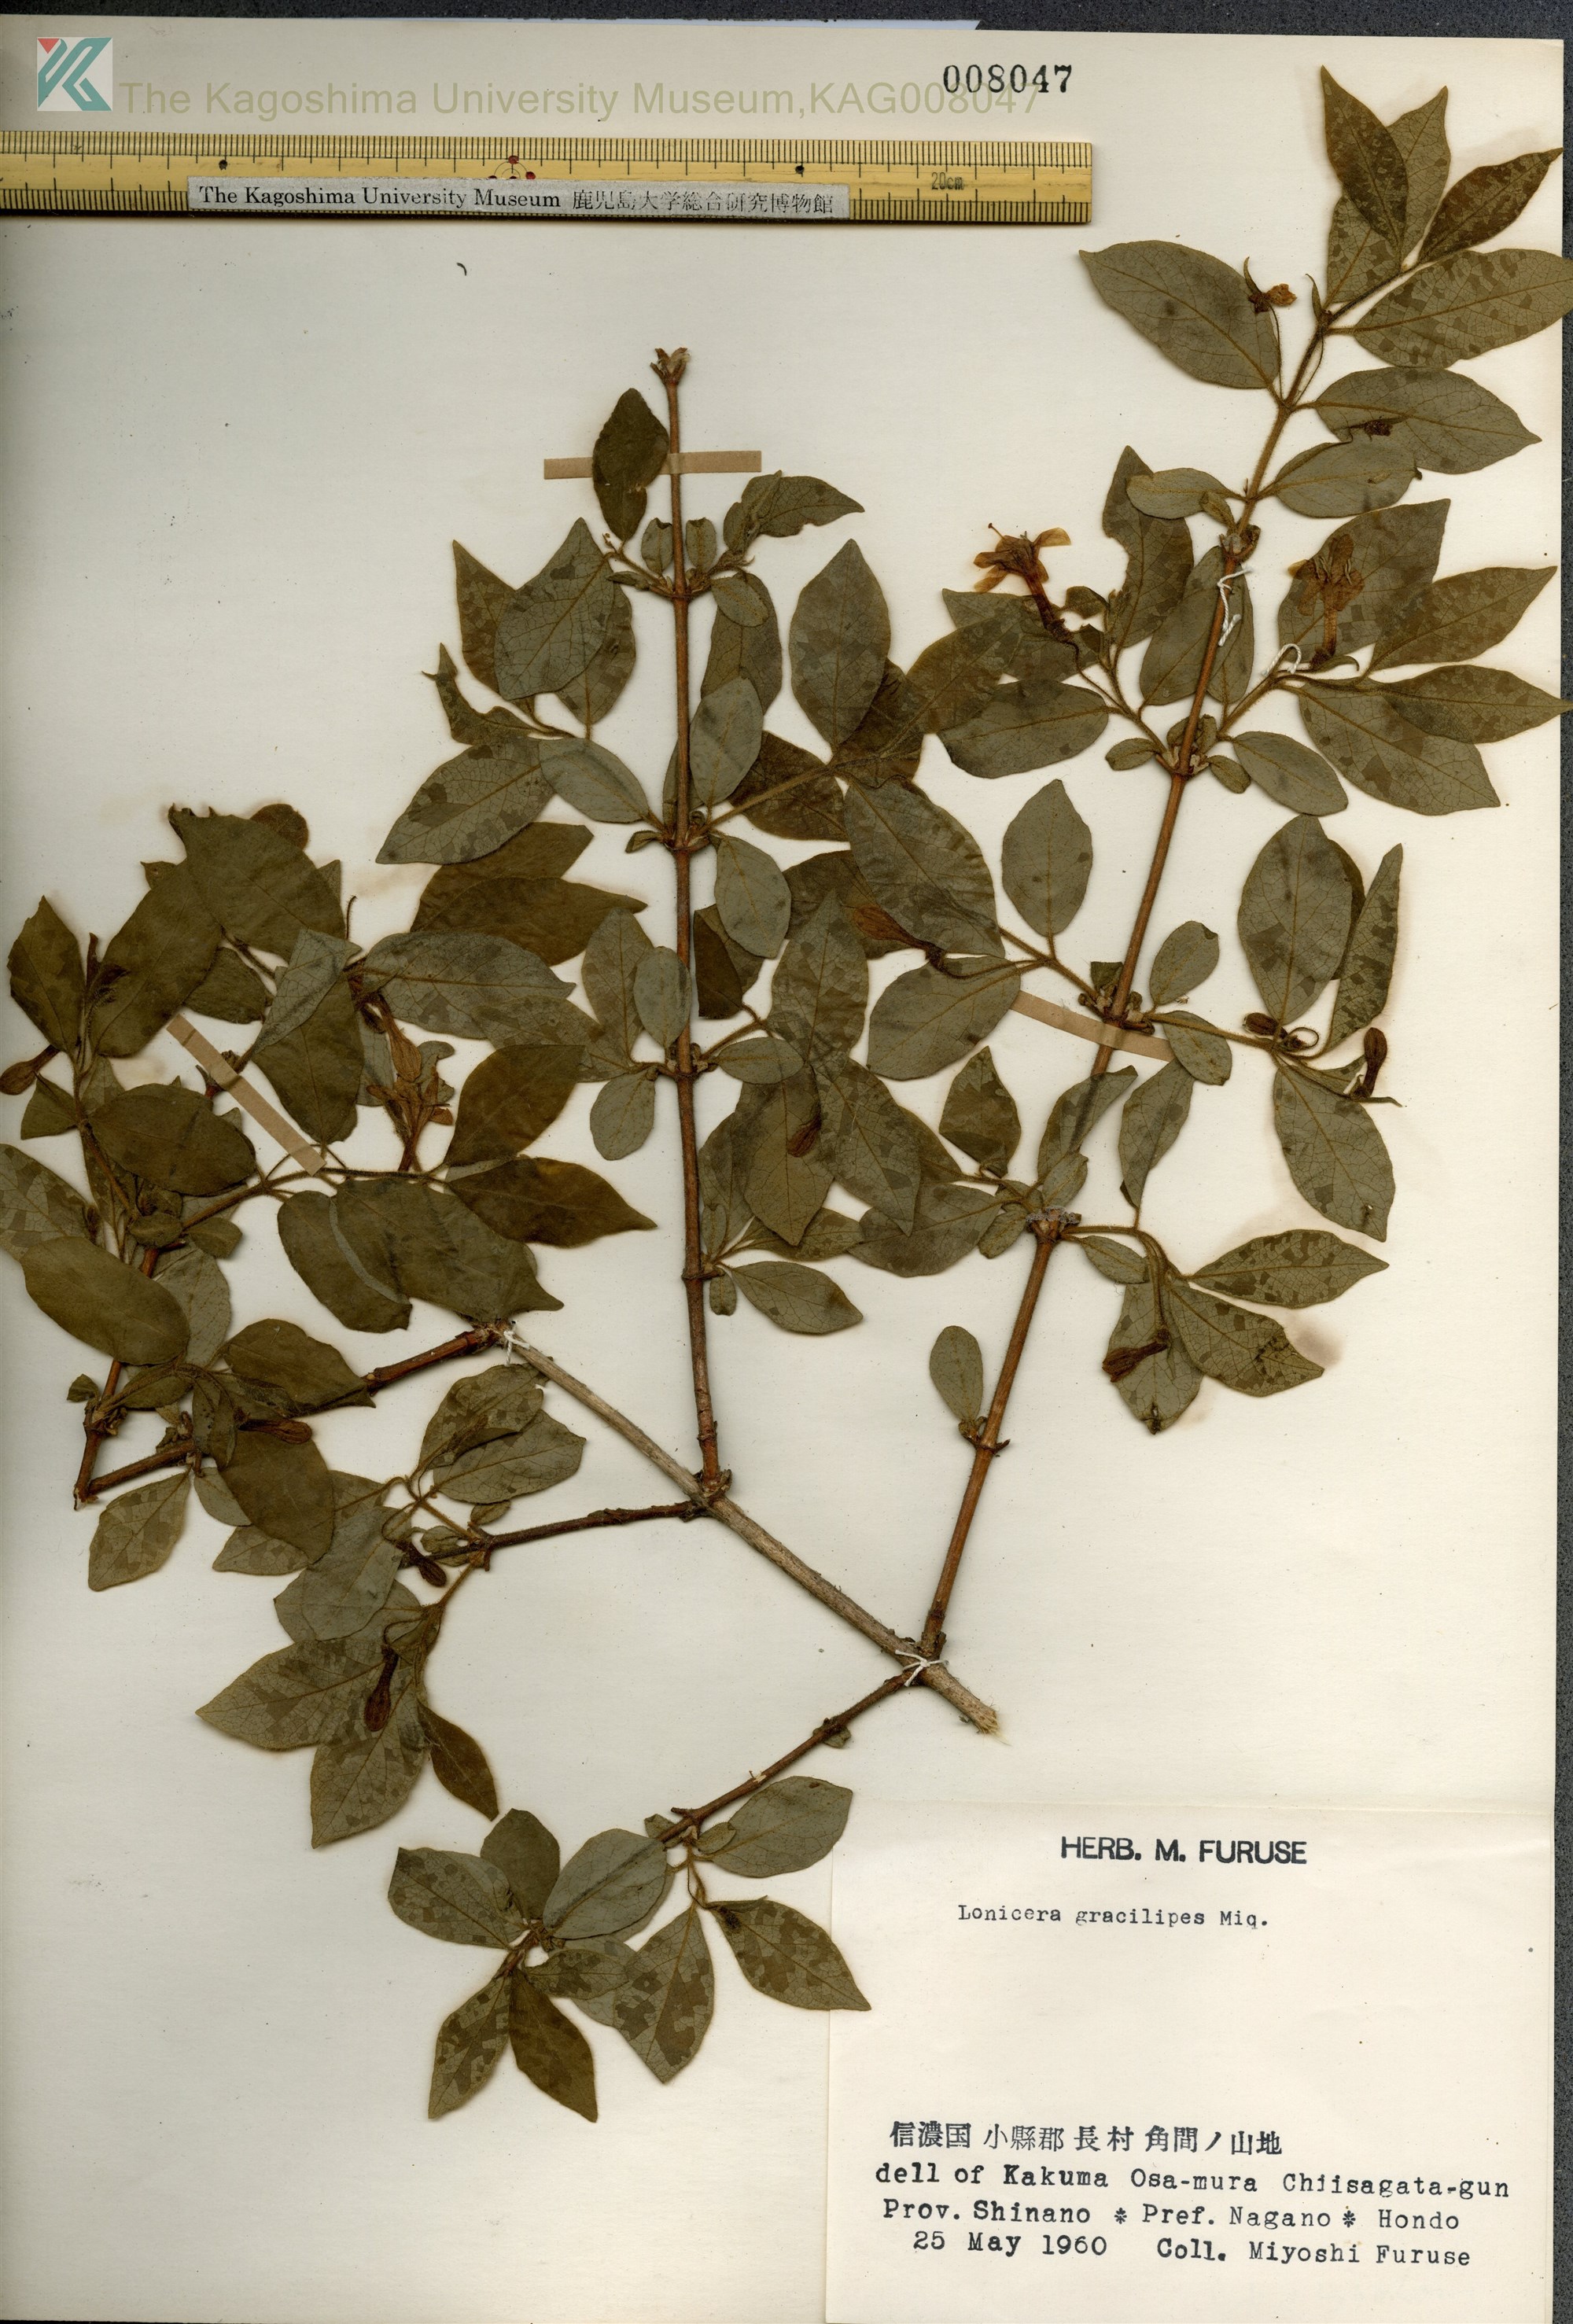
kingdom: Plantae
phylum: Tracheophyta
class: Magnoliopsida
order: Dipsacales
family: Caprifoliaceae
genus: Lonicera
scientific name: Lonicera gracilipes
